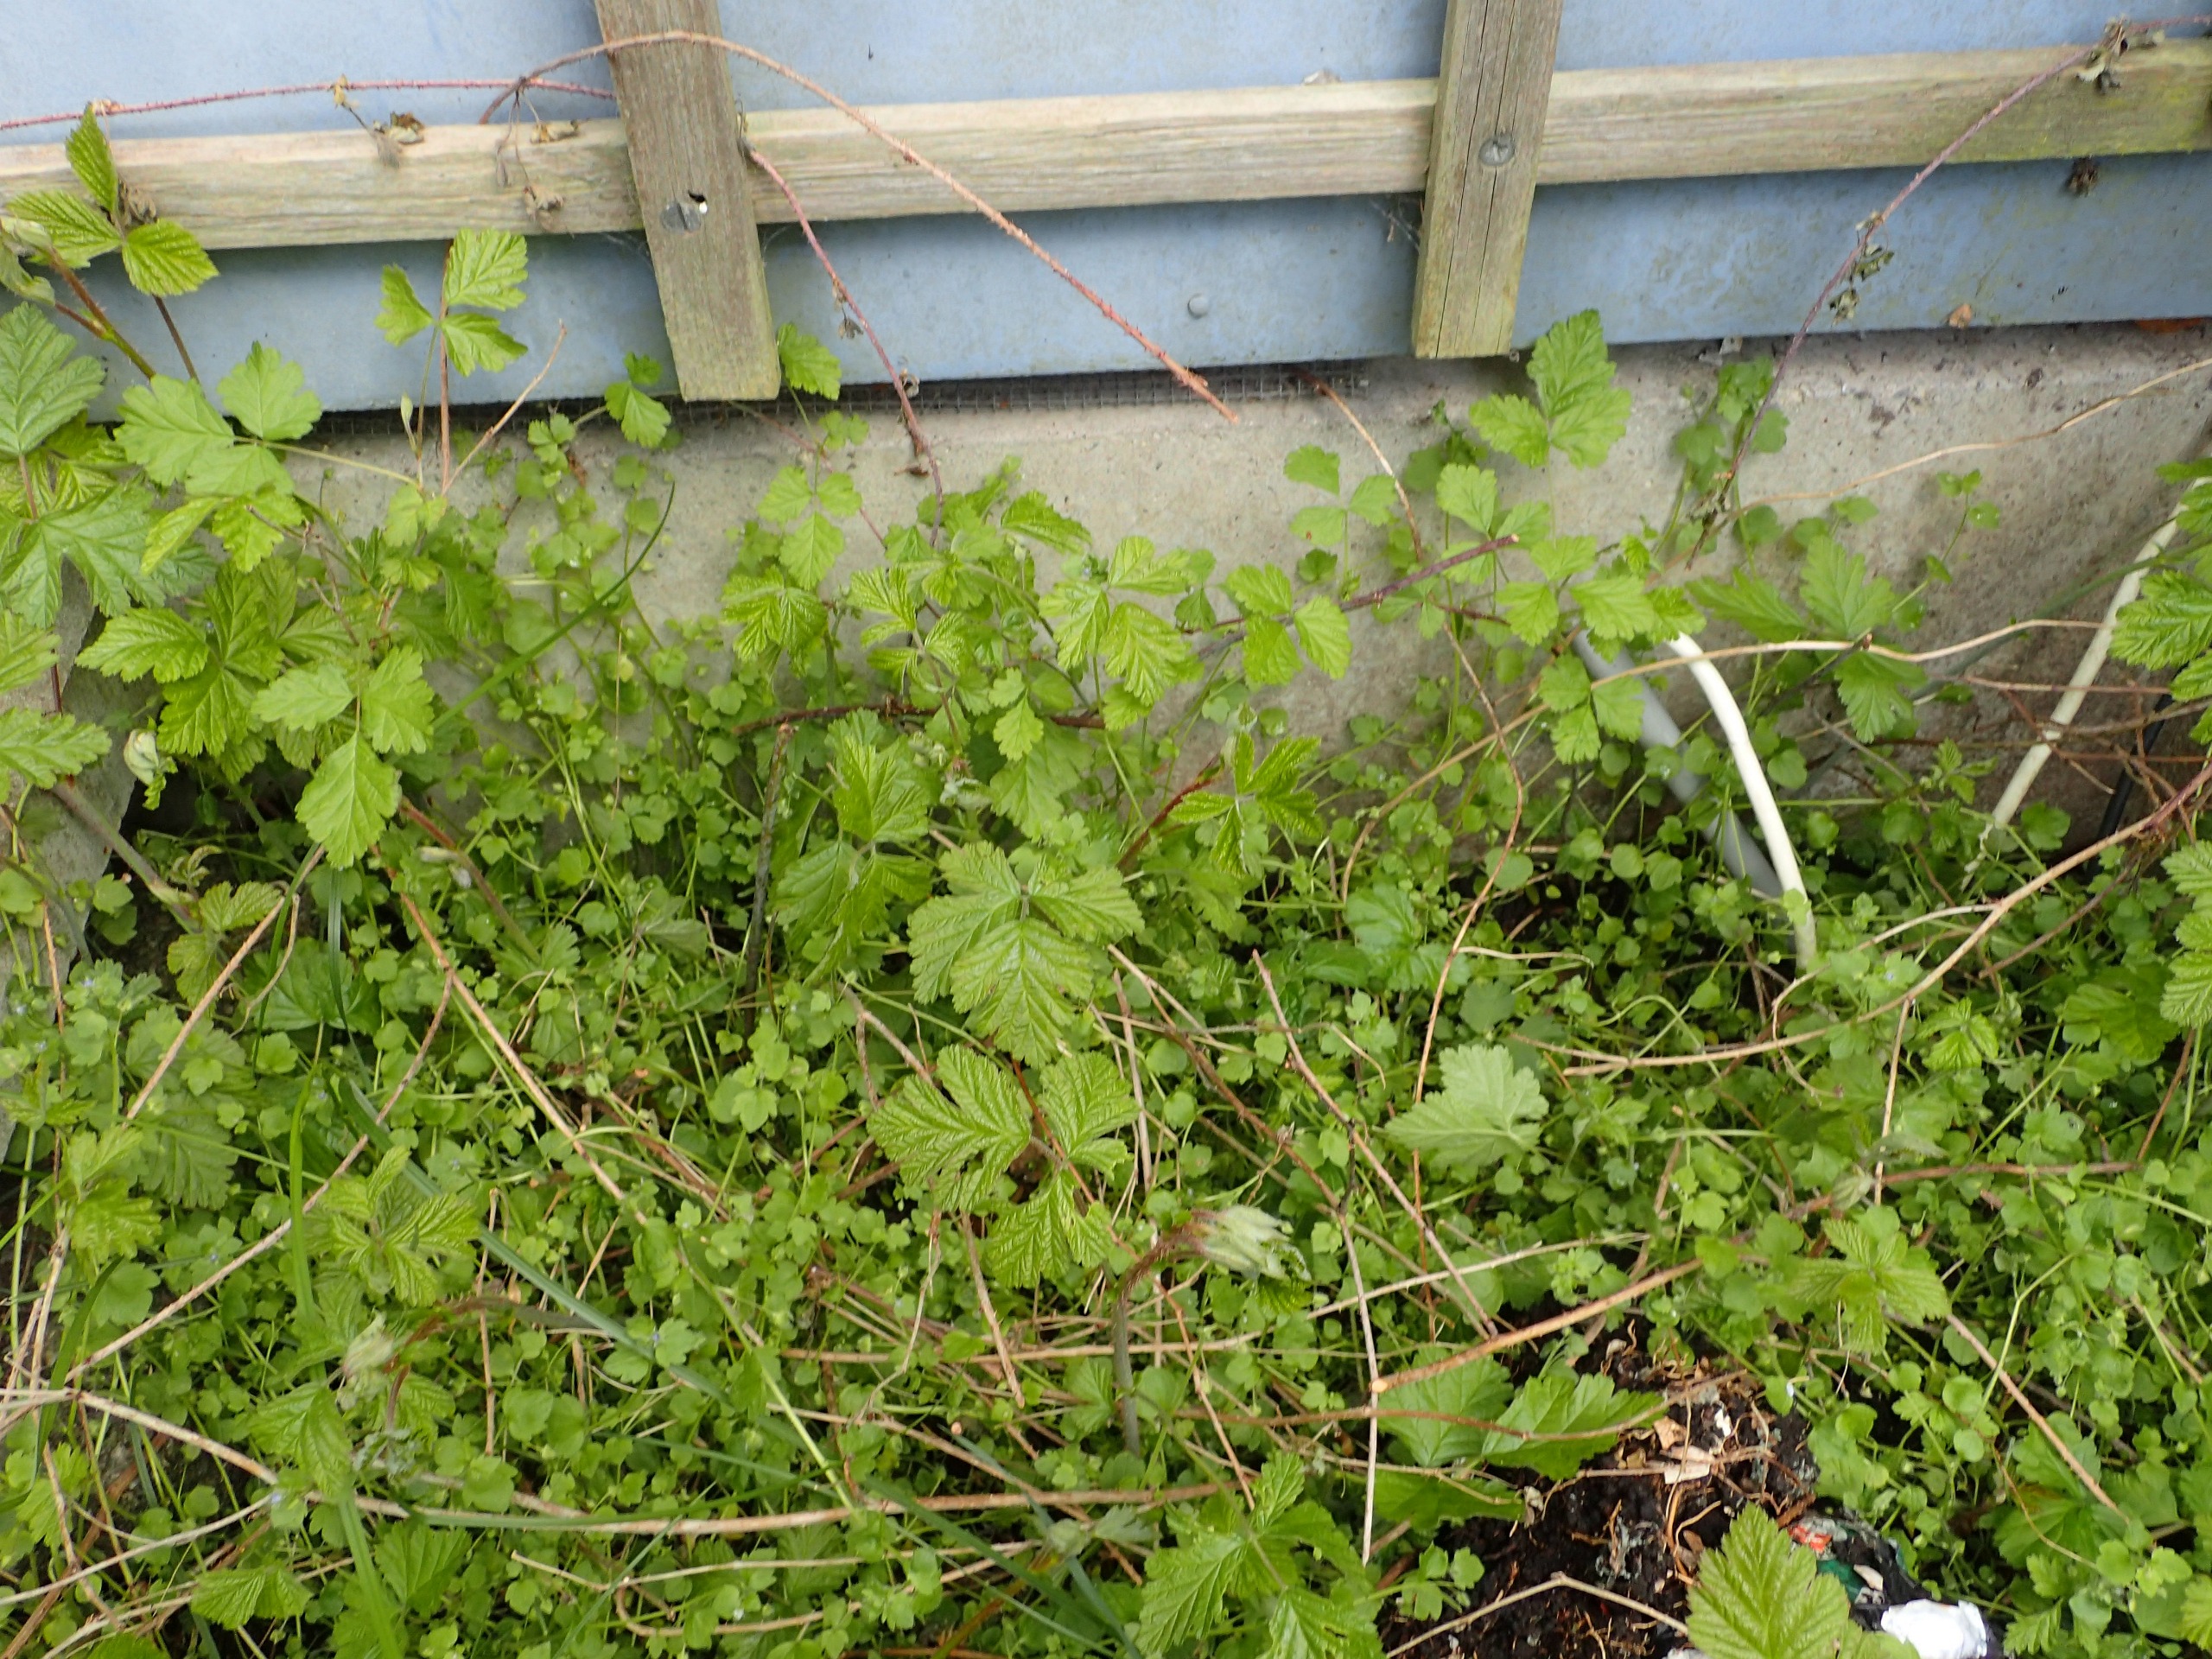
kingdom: Plantae
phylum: Tracheophyta
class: Magnoliopsida
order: Rosales
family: Rosaceae
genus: Rubus
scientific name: Rubus caesius
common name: Korbær
